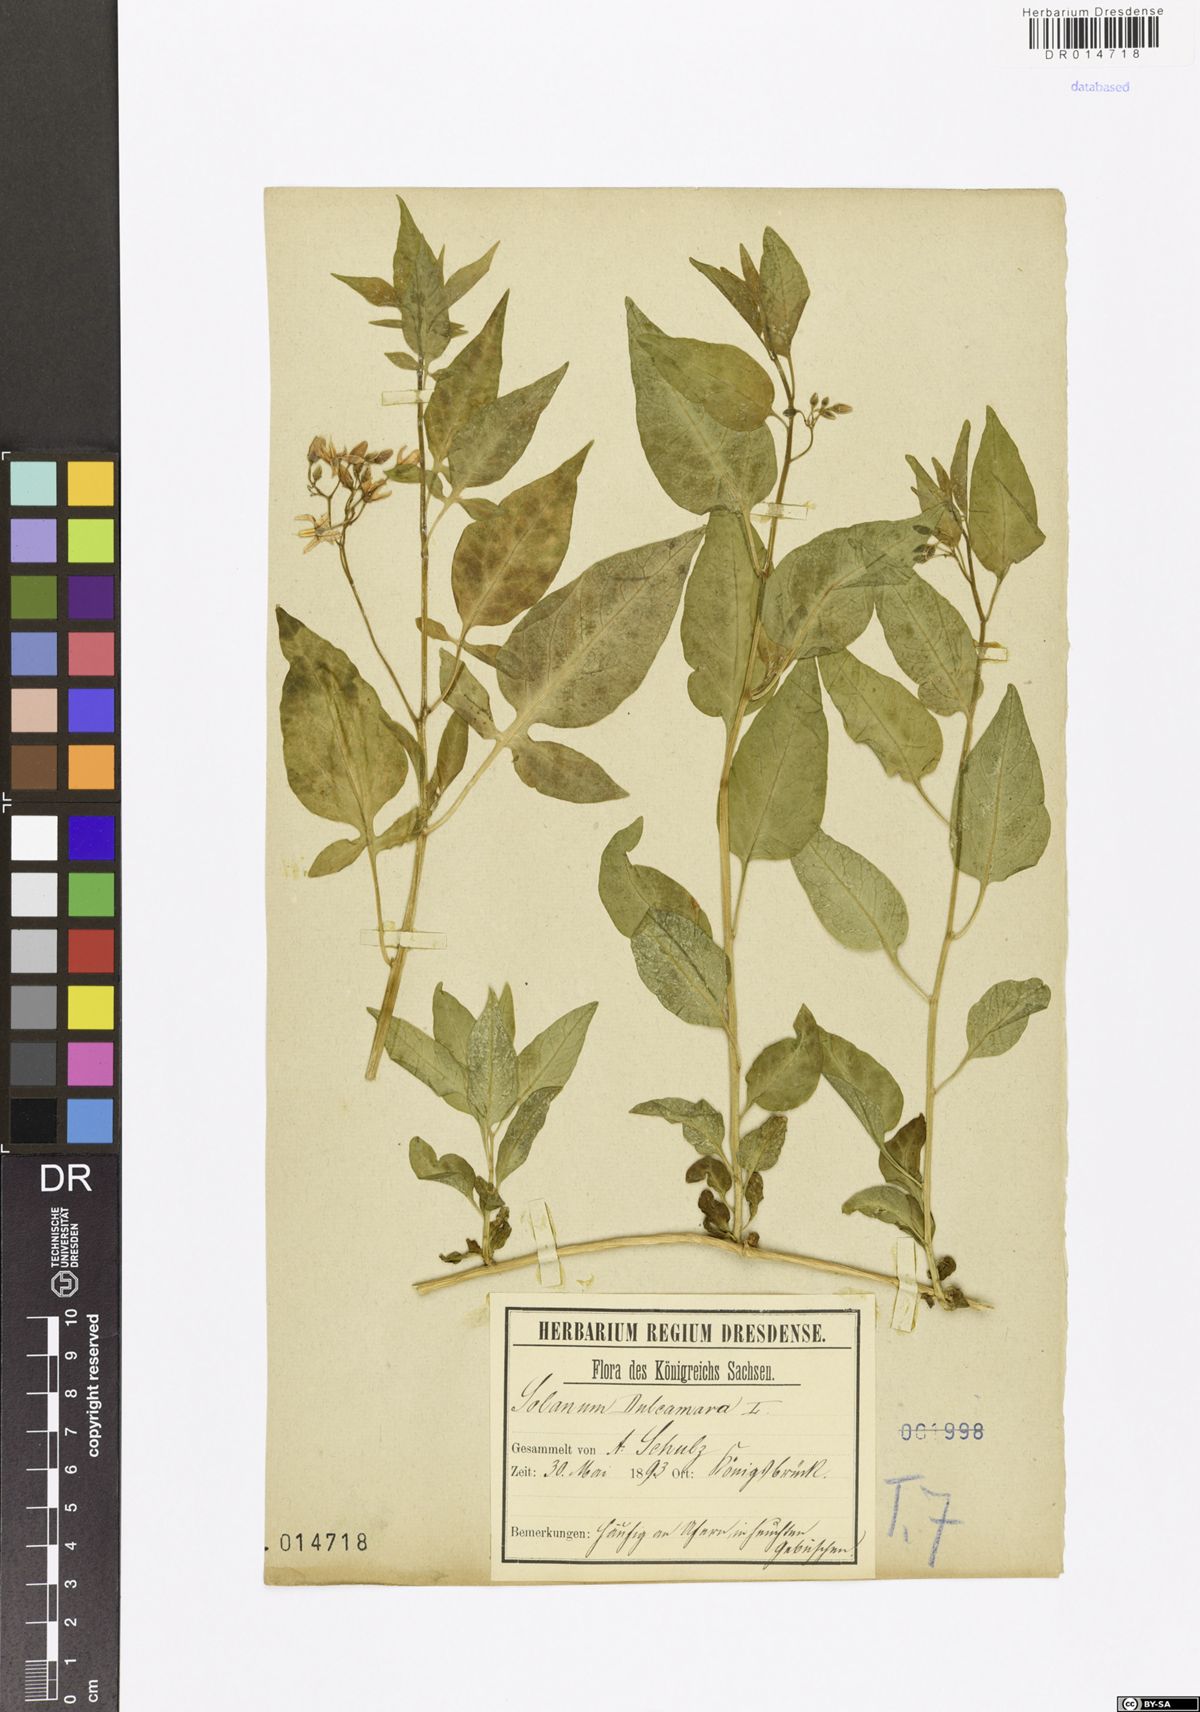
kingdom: Plantae
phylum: Tracheophyta
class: Magnoliopsida
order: Solanales
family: Solanaceae
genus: Solanum
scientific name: Solanum dulcamara
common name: Climbing nightshade
